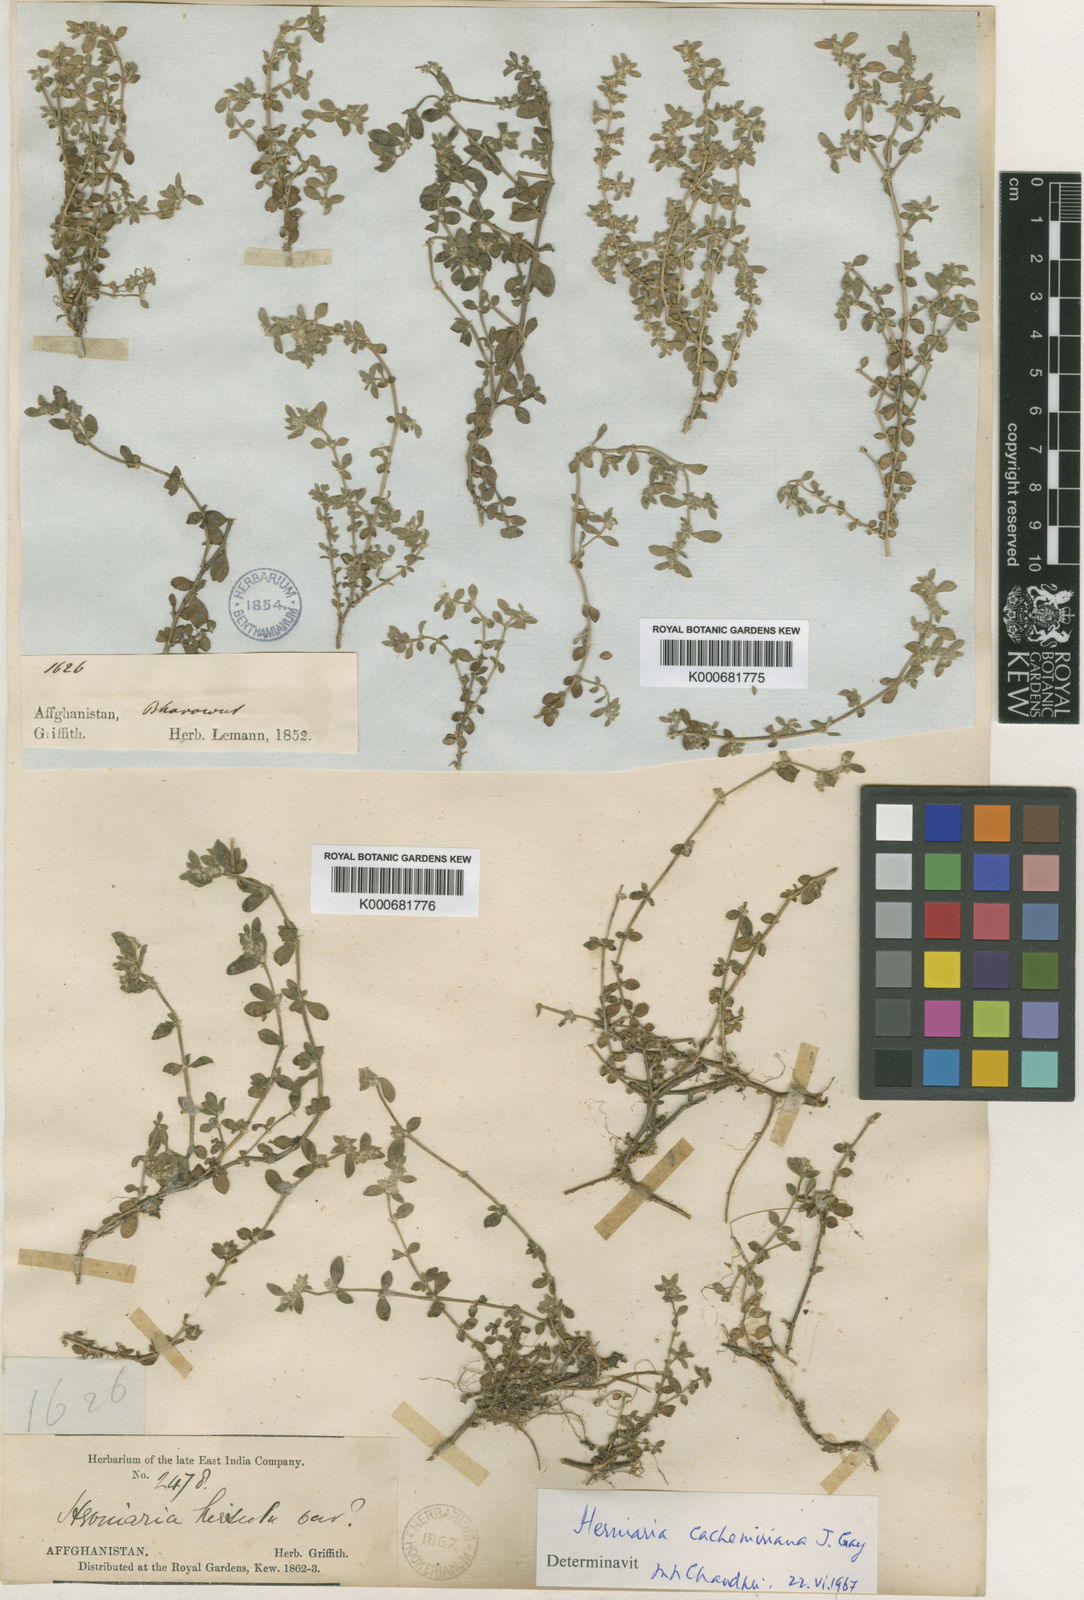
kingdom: Plantae
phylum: Tracheophyta
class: Magnoliopsida
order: Caryophyllales
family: Caryophyllaceae
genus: Herniaria
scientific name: Herniaria cachemiriana
